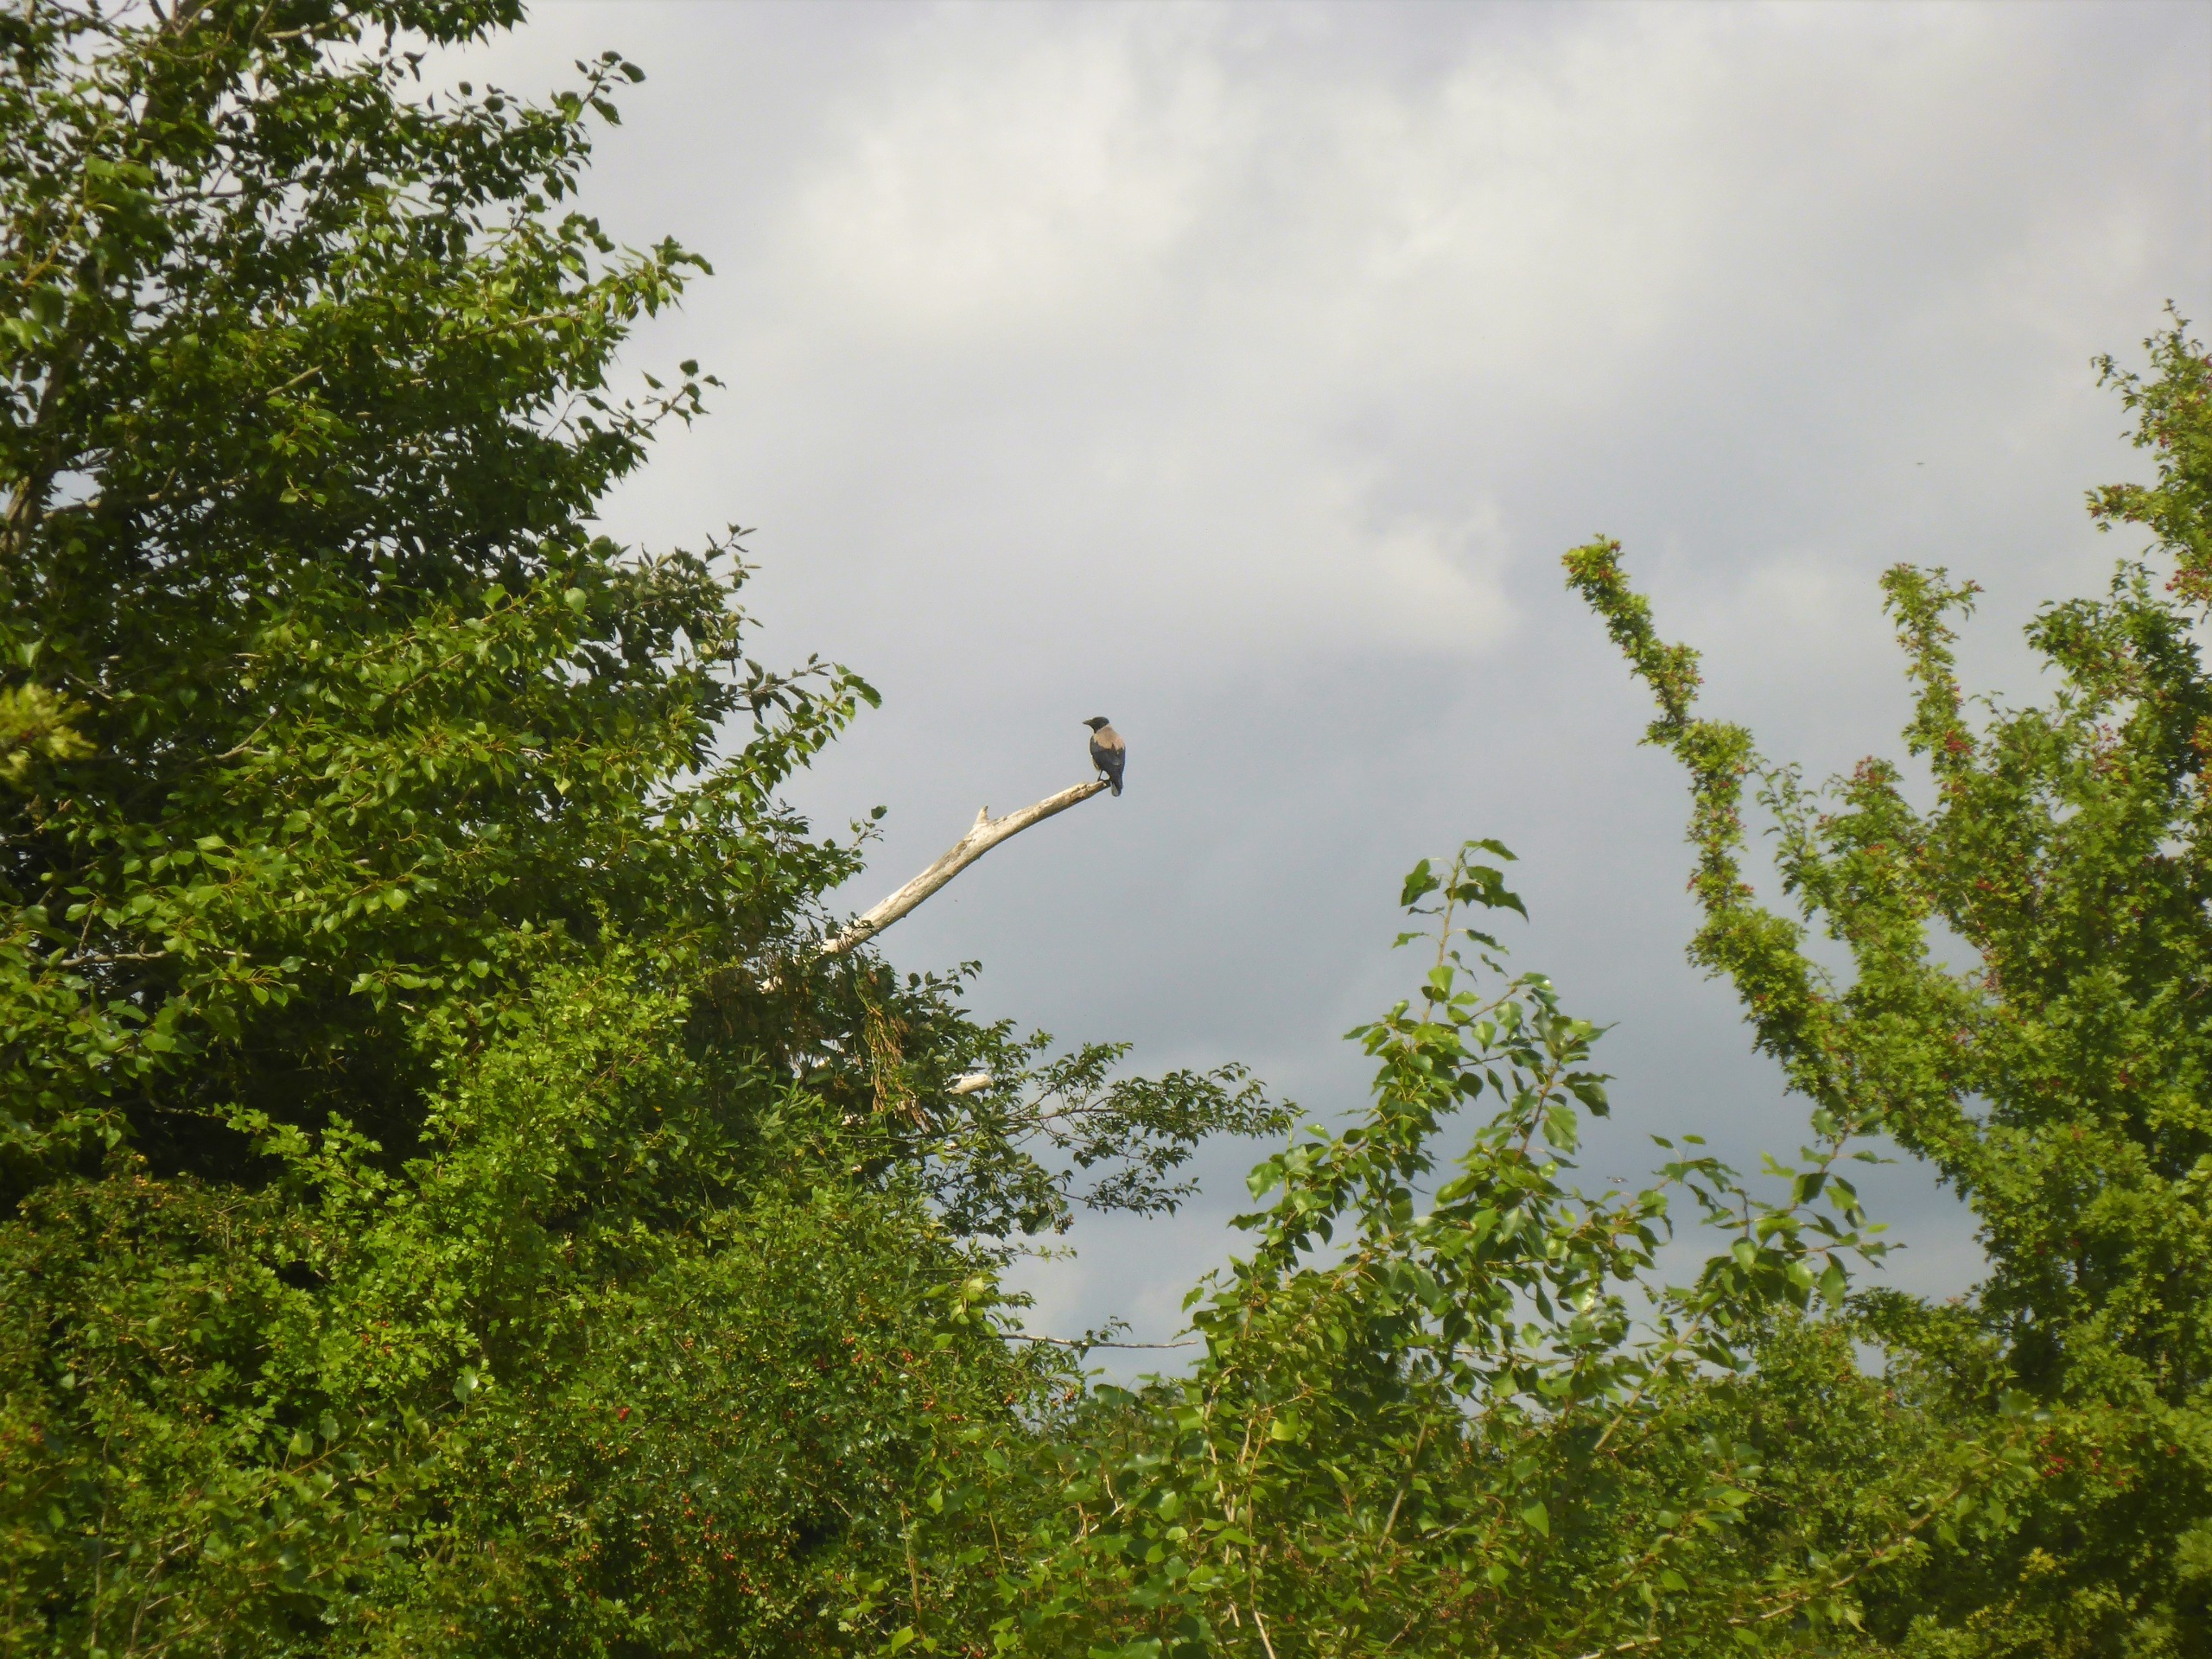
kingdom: Animalia
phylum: Chordata
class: Aves
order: Passeriformes
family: Corvidae
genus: Corvus
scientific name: Corvus cornix
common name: Gråkrage
